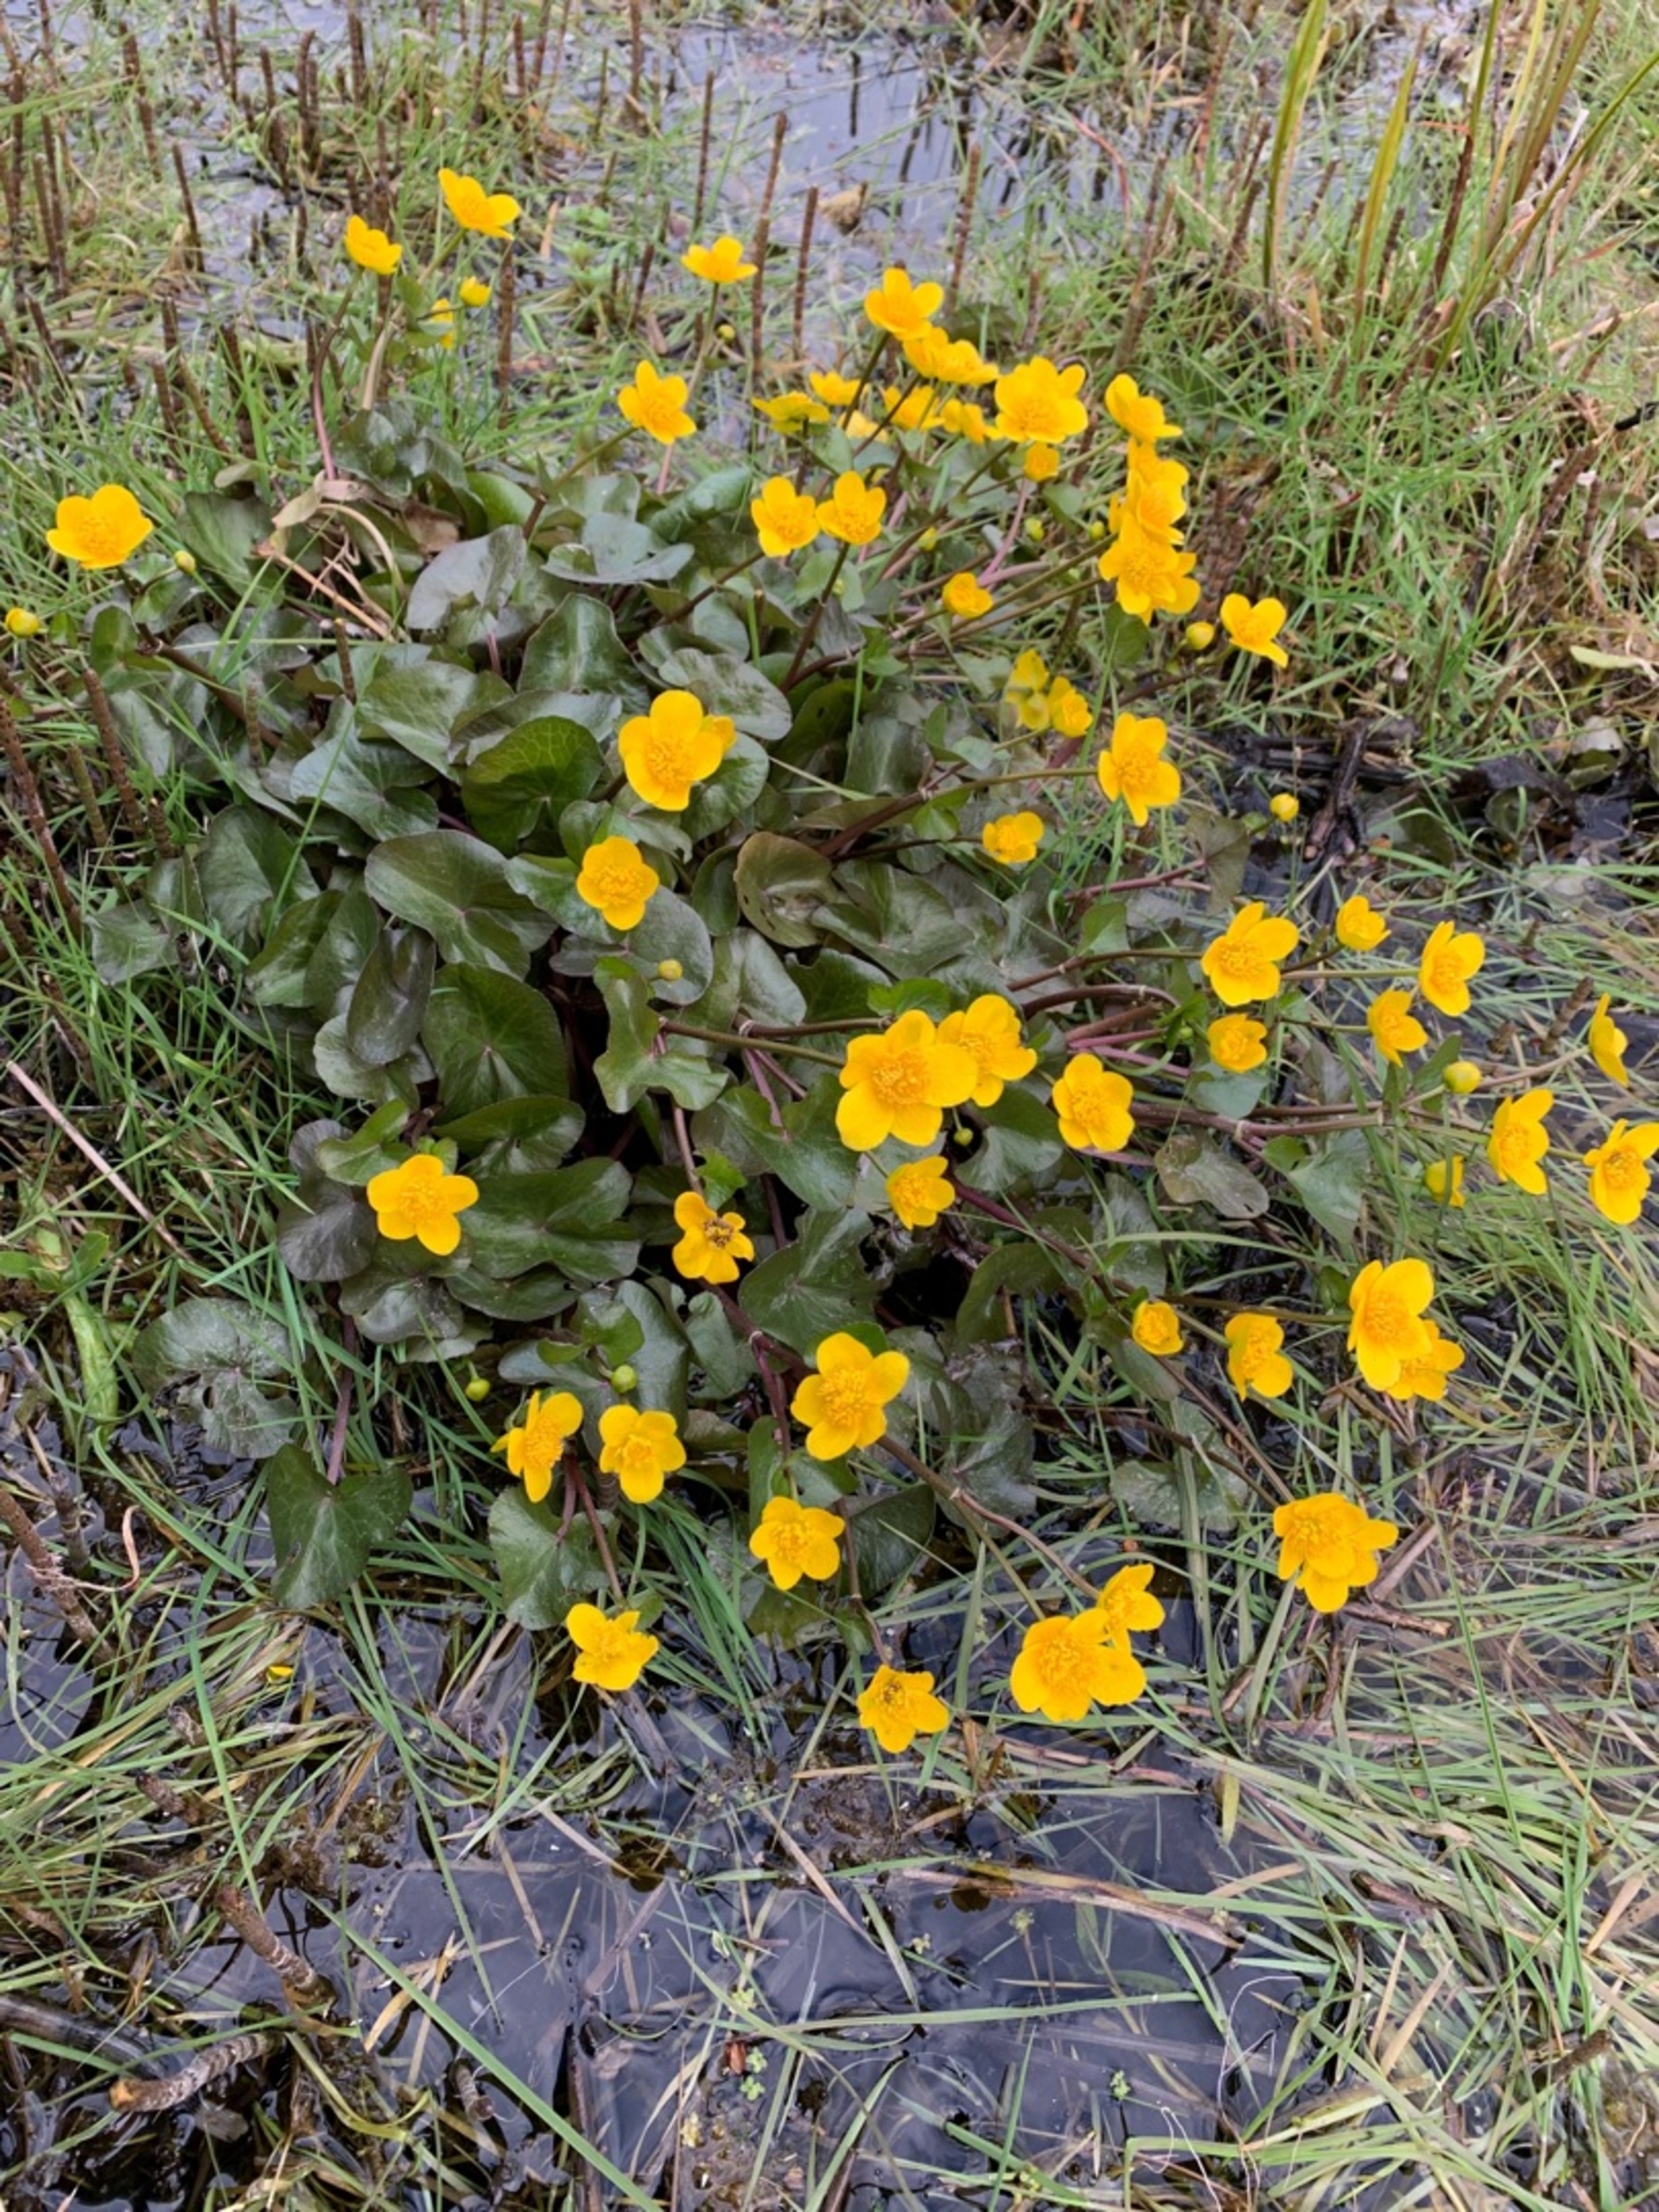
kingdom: Plantae
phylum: Tracheophyta
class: Magnoliopsida
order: Ranunculales
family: Ranunculaceae
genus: Caltha
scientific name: Caltha palustris
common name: Eng-kabbeleje
